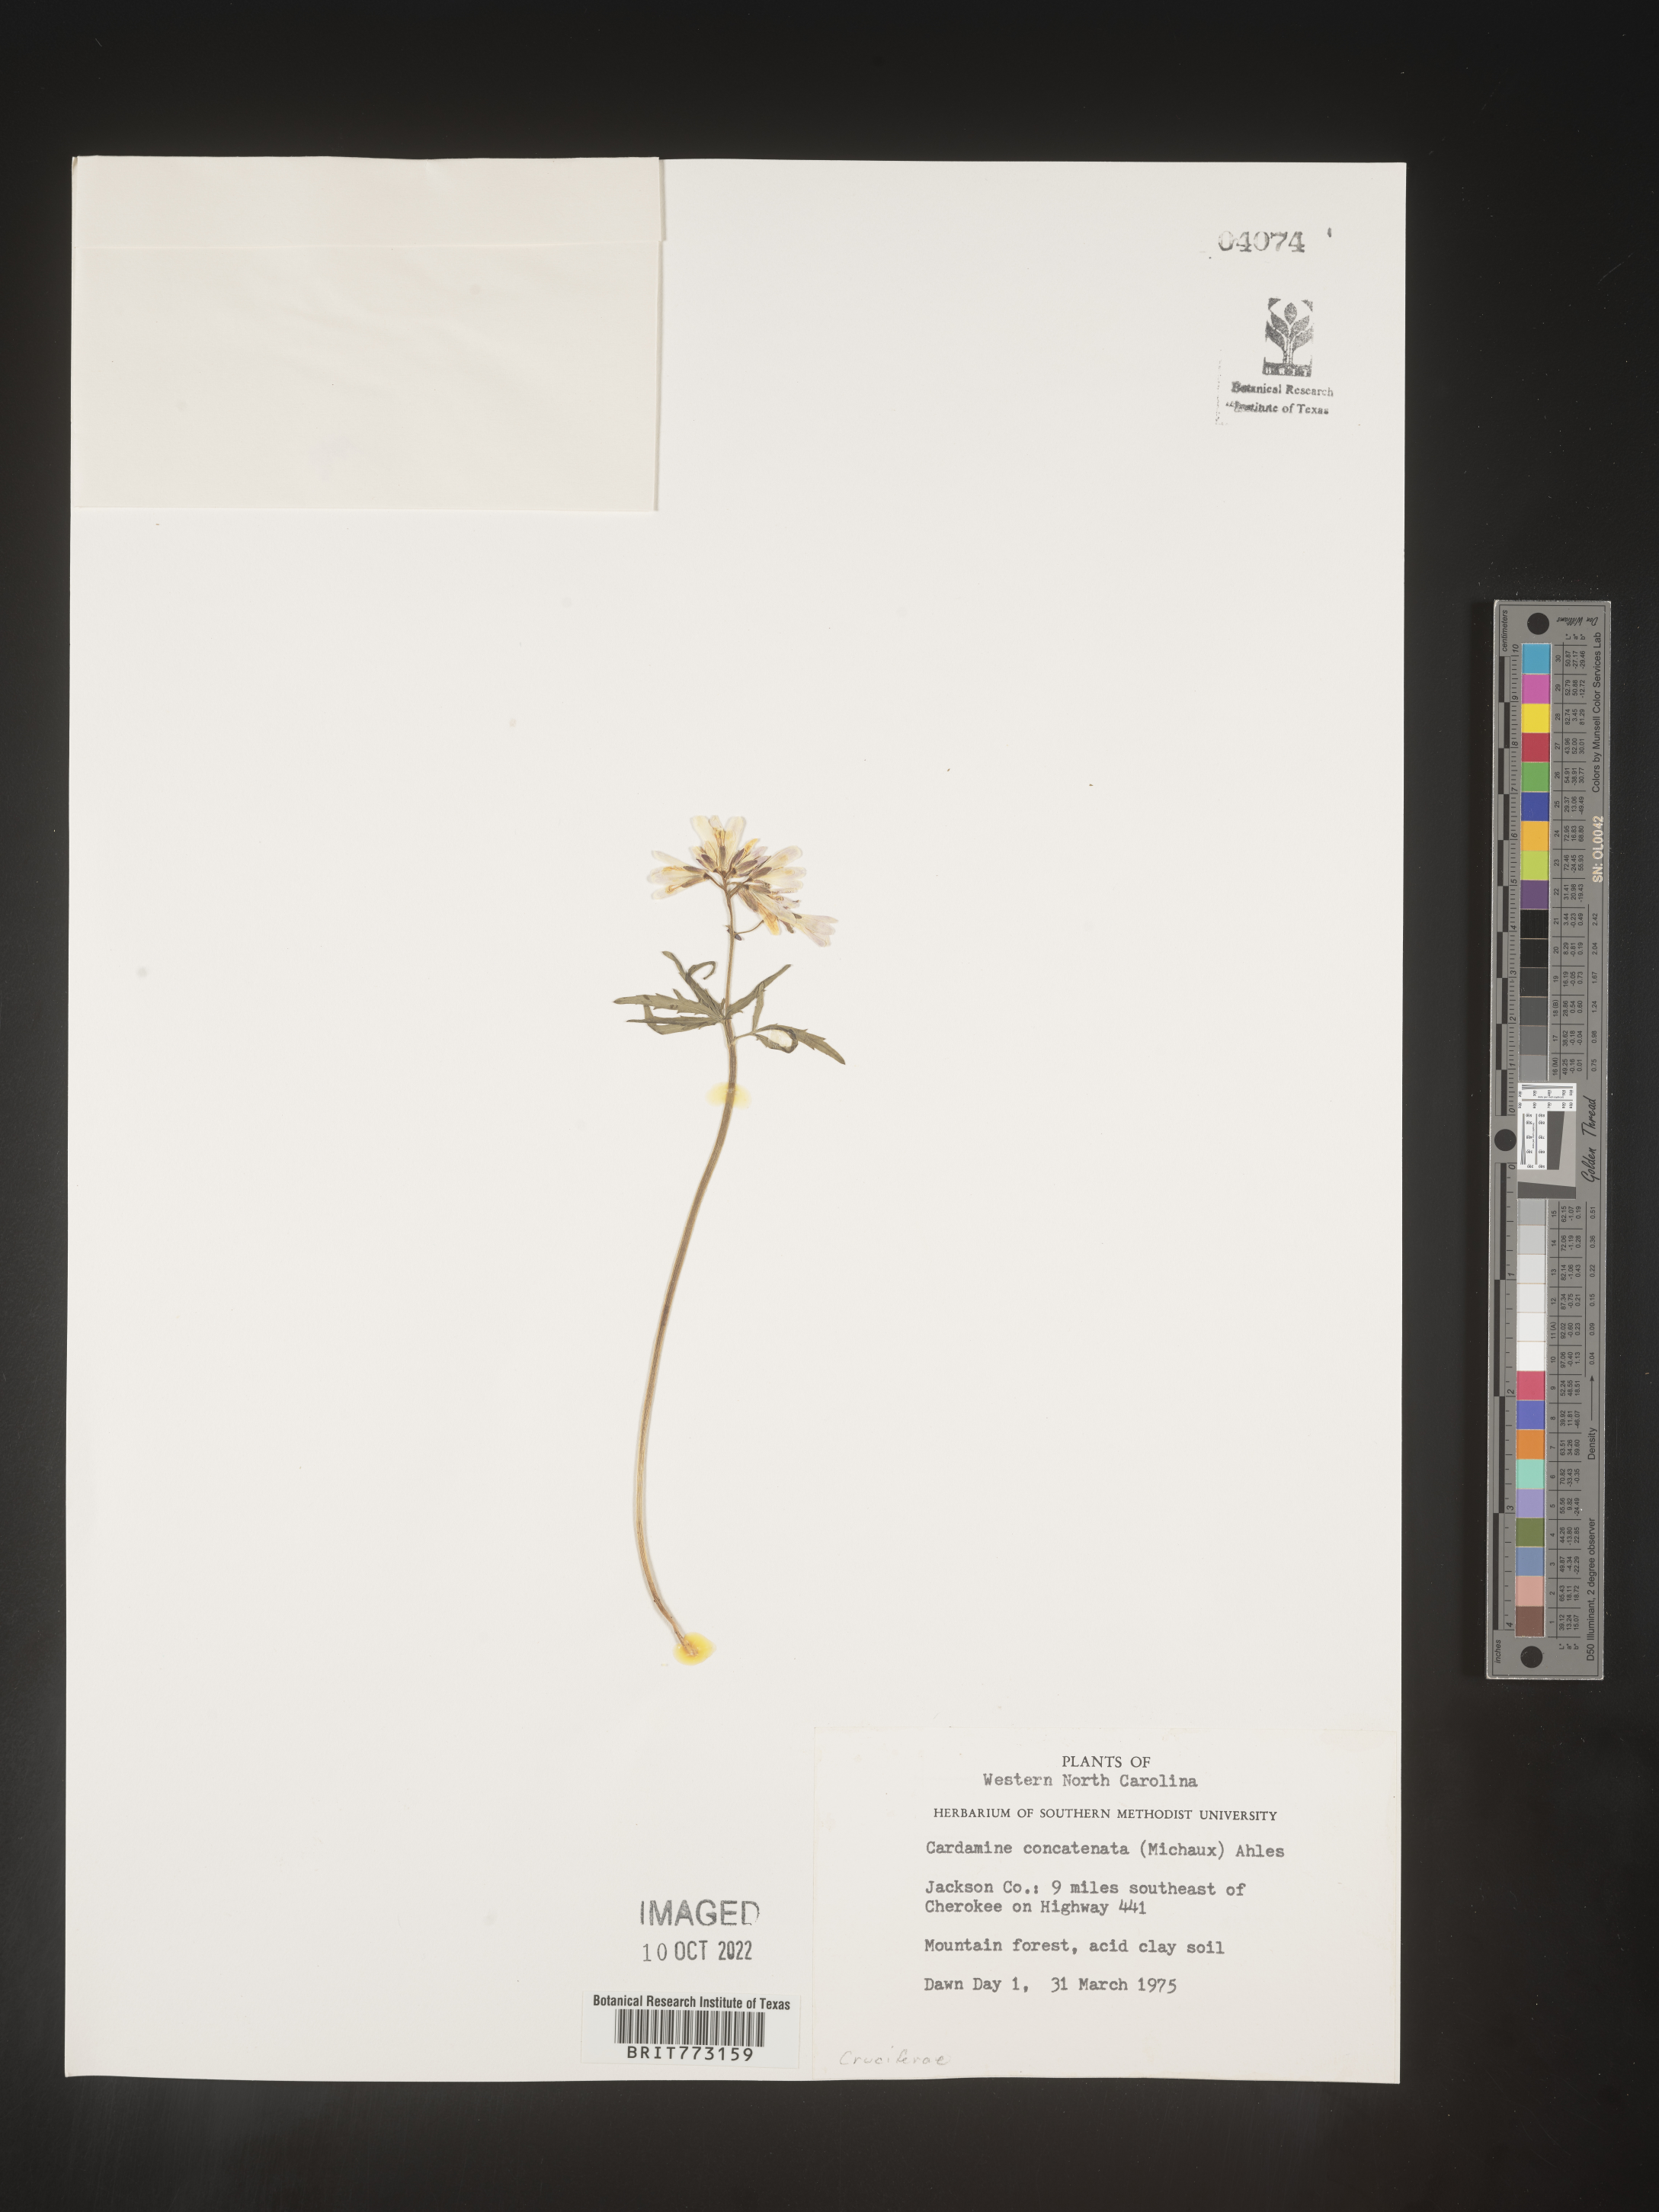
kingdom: Plantae
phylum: Tracheophyta
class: Magnoliopsida
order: Brassicales
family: Brassicaceae
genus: Cardamine
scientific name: Cardamine
